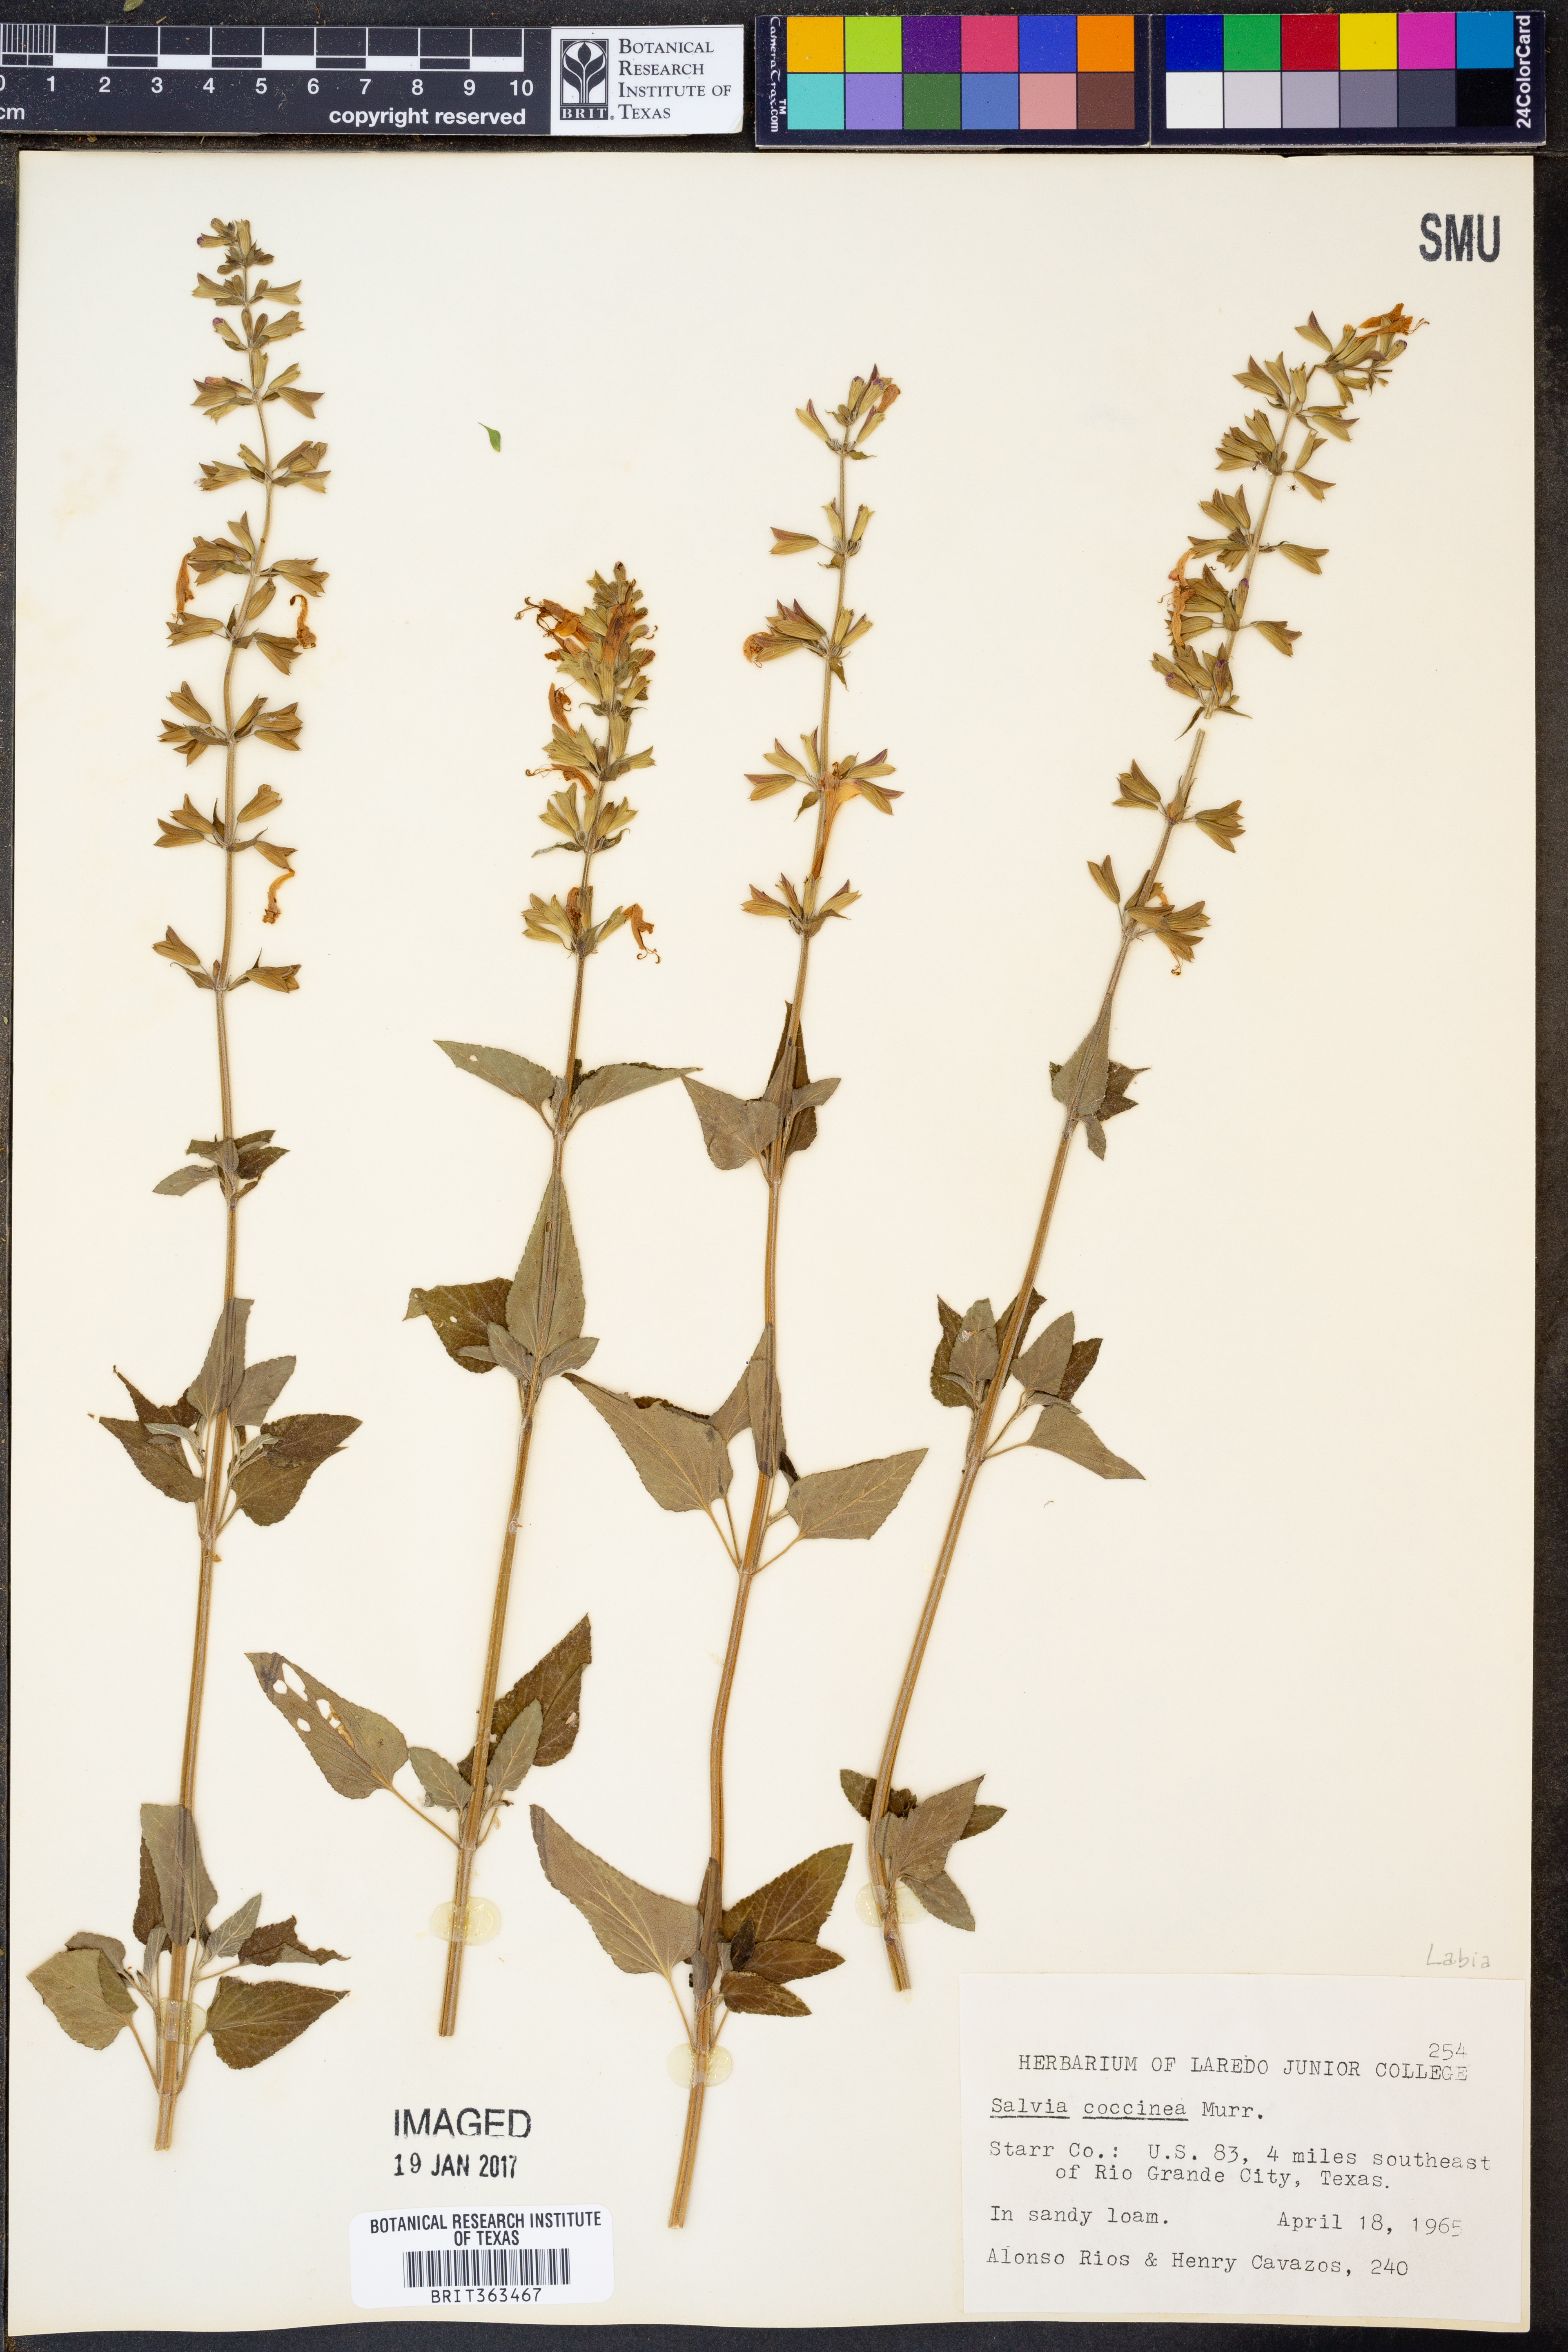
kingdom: Plantae
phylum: Tracheophyta
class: Magnoliopsida
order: Lamiales
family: Lamiaceae
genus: Salvia
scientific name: Salvia coccinea
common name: Blood sage
